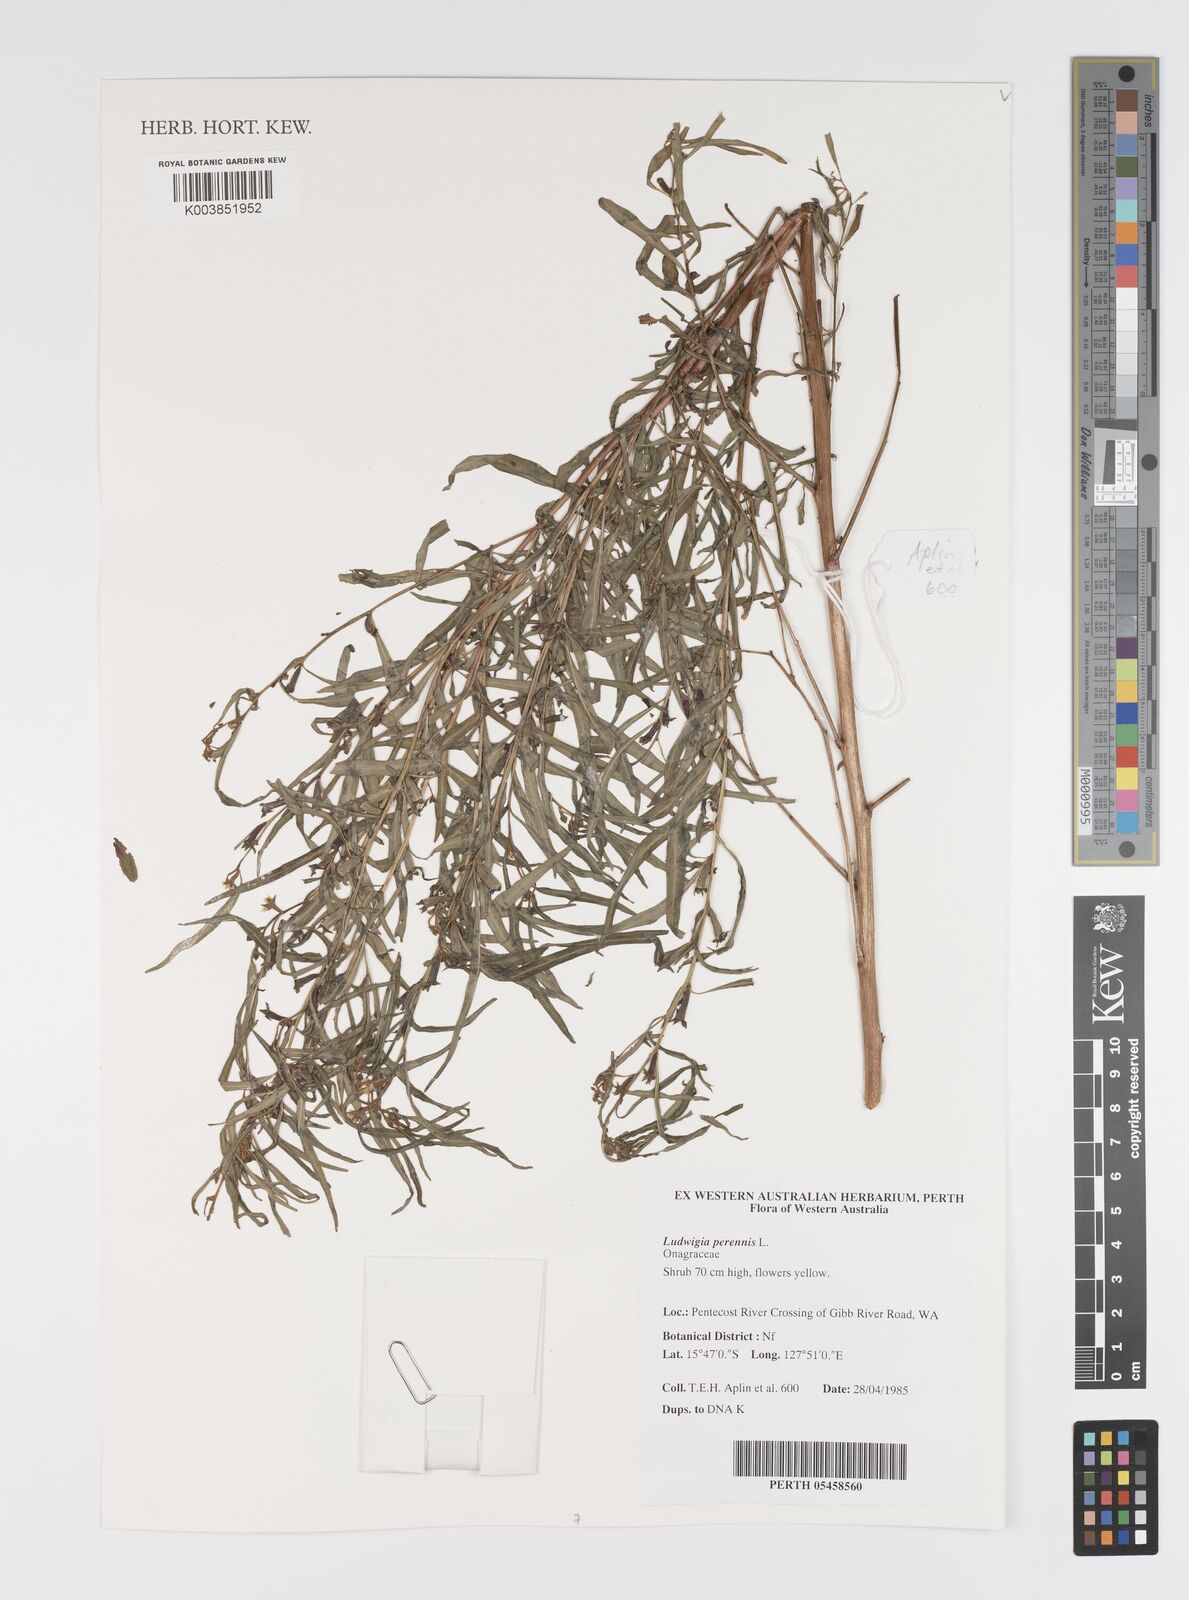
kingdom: Plantae
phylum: Tracheophyta
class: Magnoliopsida
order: Myrtales
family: Onagraceae
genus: Ludwigia
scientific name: Ludwigia perennis
